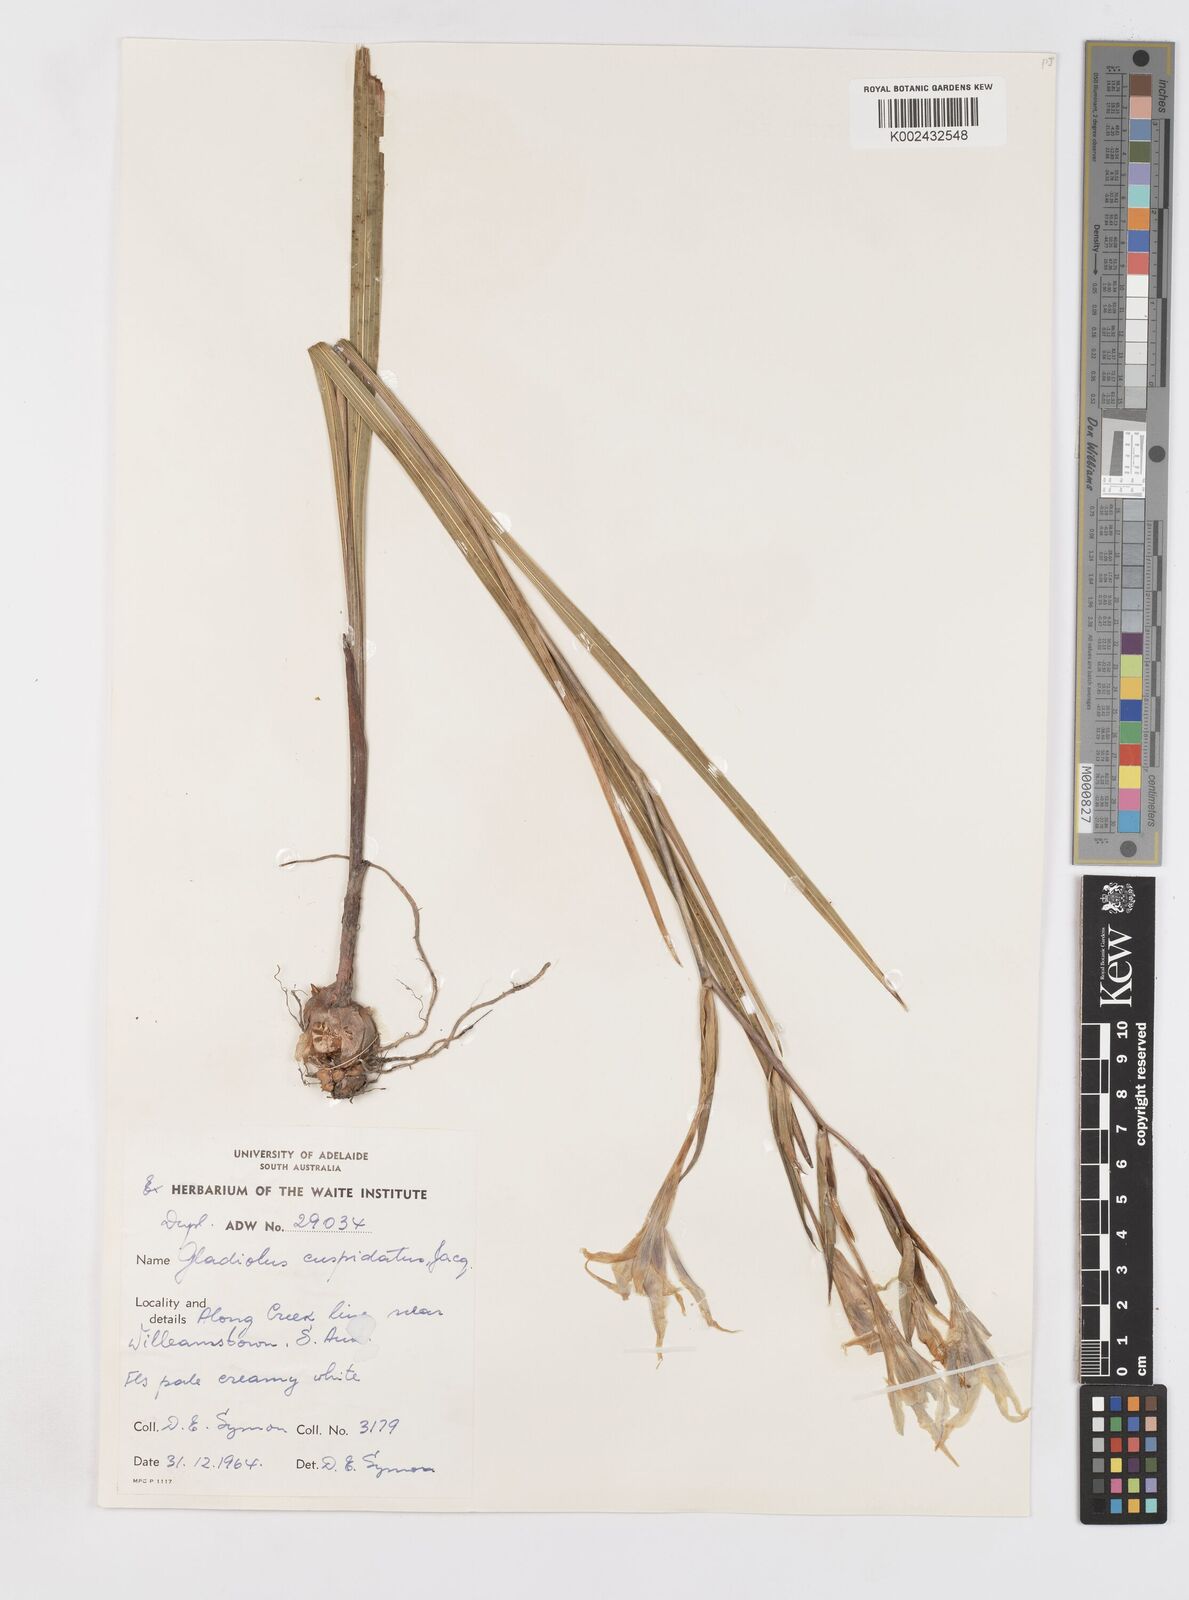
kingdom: Plantae
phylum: Tracheophyta
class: Liliopsida
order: Asparagales
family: Iridaceae
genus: Gladiolus
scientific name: Gladiolus undulatus
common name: Large painted-lady
